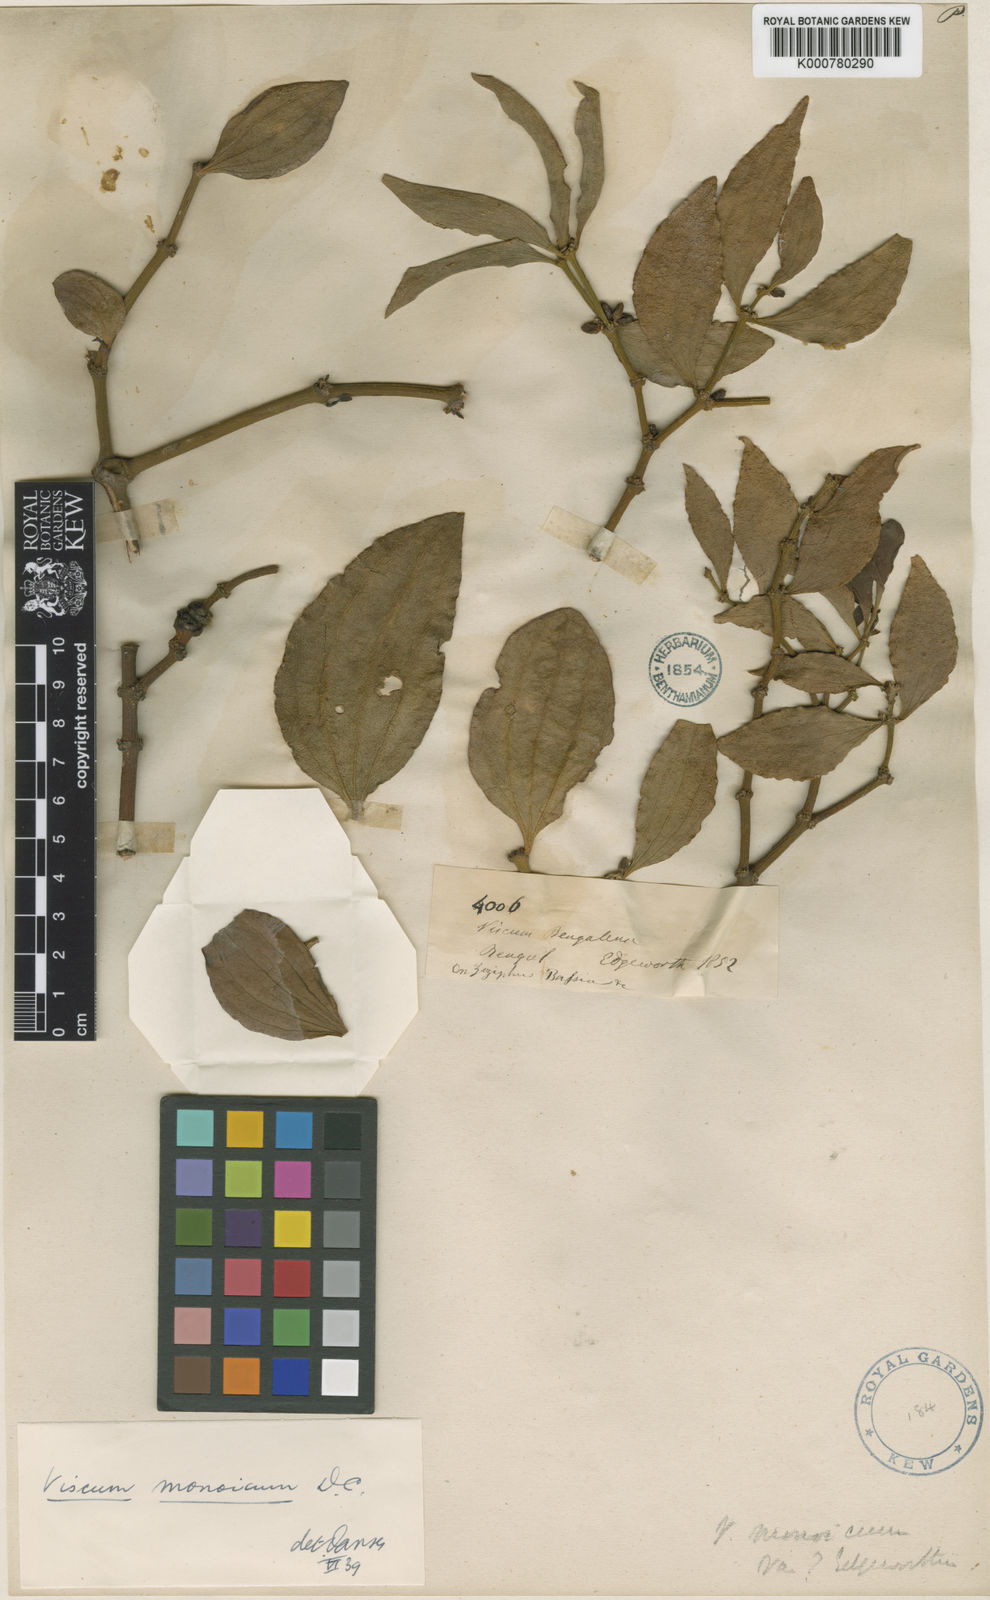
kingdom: Plantae
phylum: Tracheophyta
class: Magnoliopsida
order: Santalales
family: Viscaceae
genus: Viscum
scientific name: Viscum monoicum
